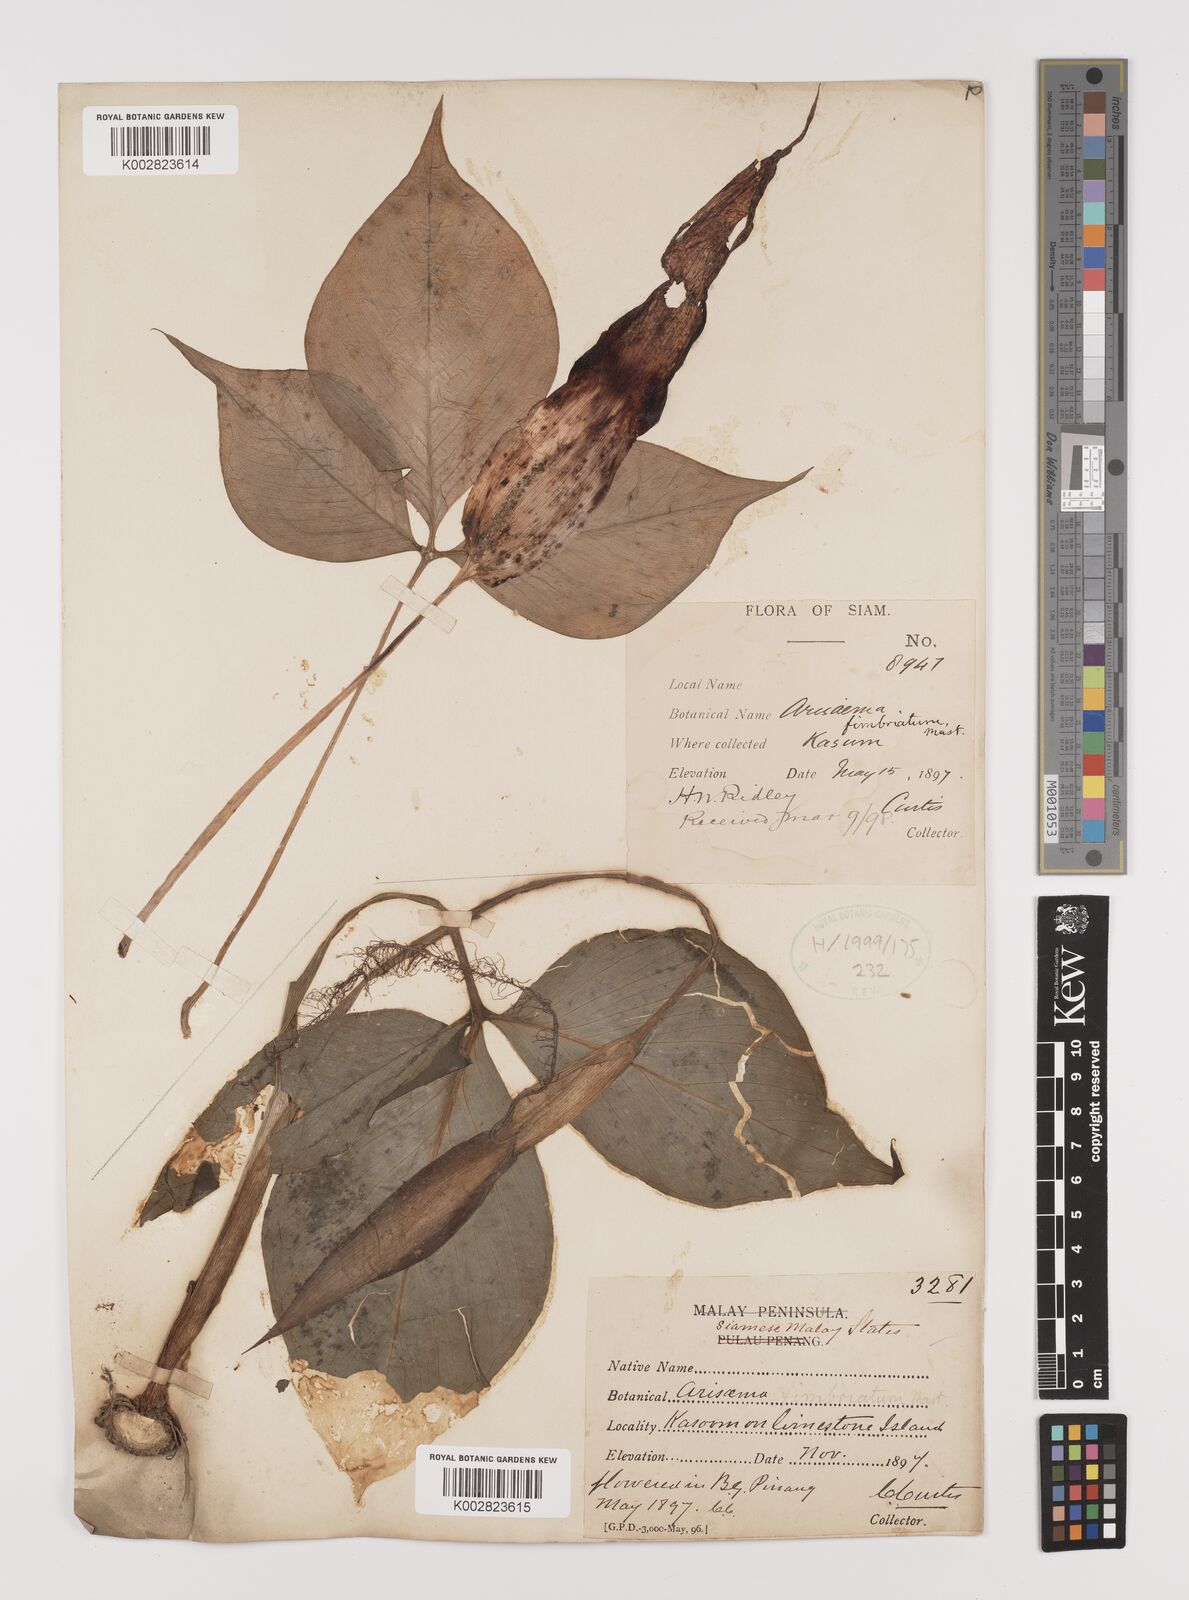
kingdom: Plantae
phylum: Tracheophyta
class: Liliopsida
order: Alismatales
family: Araceae
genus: Arisaema
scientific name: Arisaema fimbriatum
